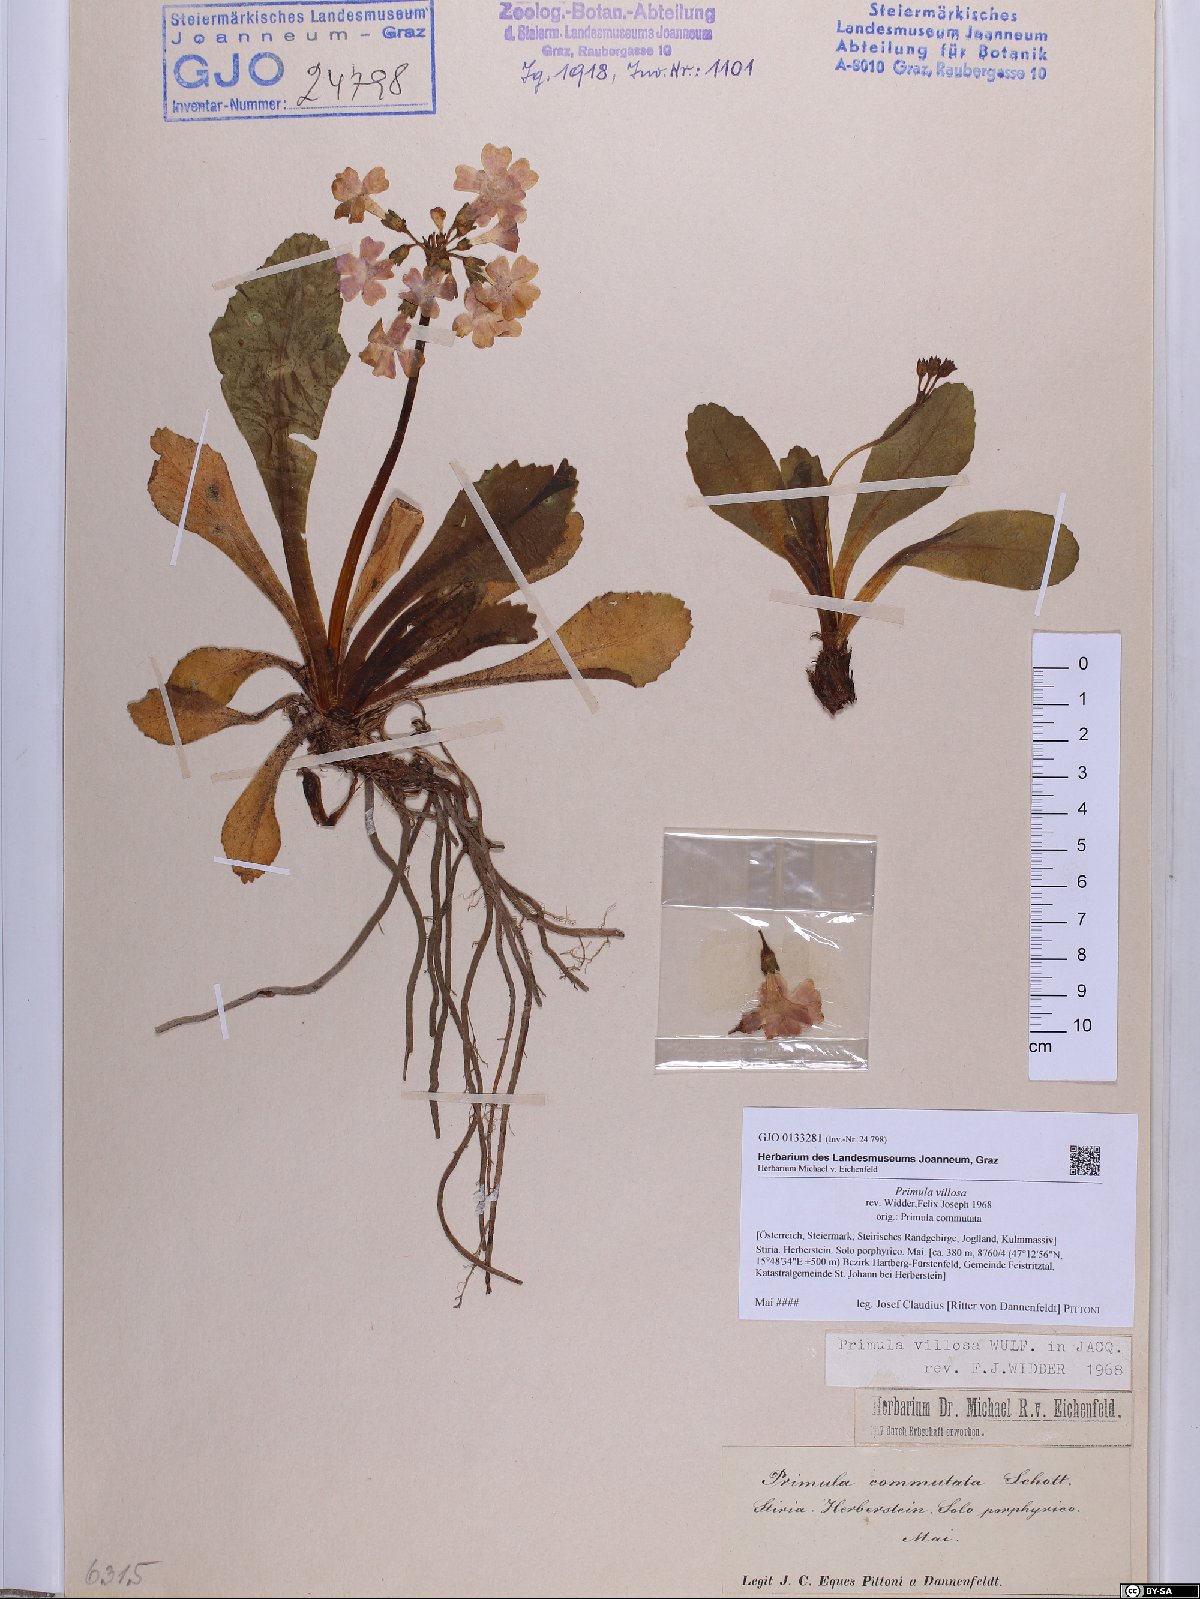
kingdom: Plantae
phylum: Tracheophyta
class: Magnoliopsida
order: Ericales
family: Primulaceae
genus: Primula
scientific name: Primula villosa
